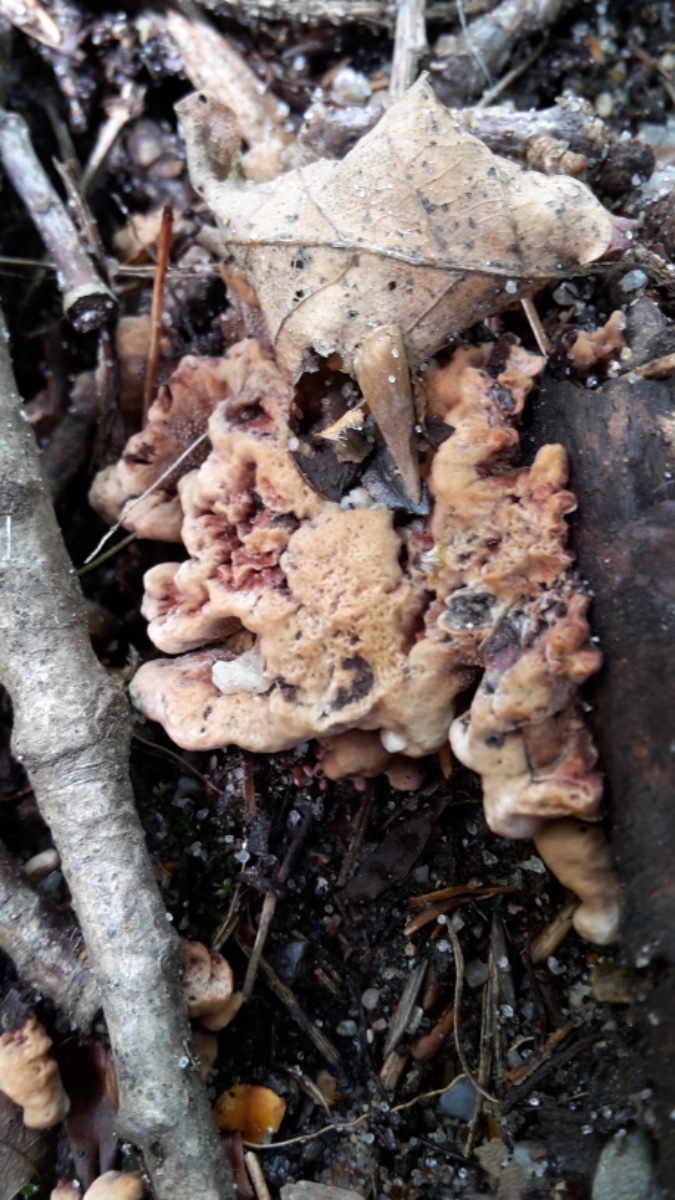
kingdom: Fungi
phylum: Basidiomycota
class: Agaricomycetes
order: Thelephorales
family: Bankeraceae
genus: Hydnellum
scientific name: Hydnellum concrescens
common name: Zoned tooth
